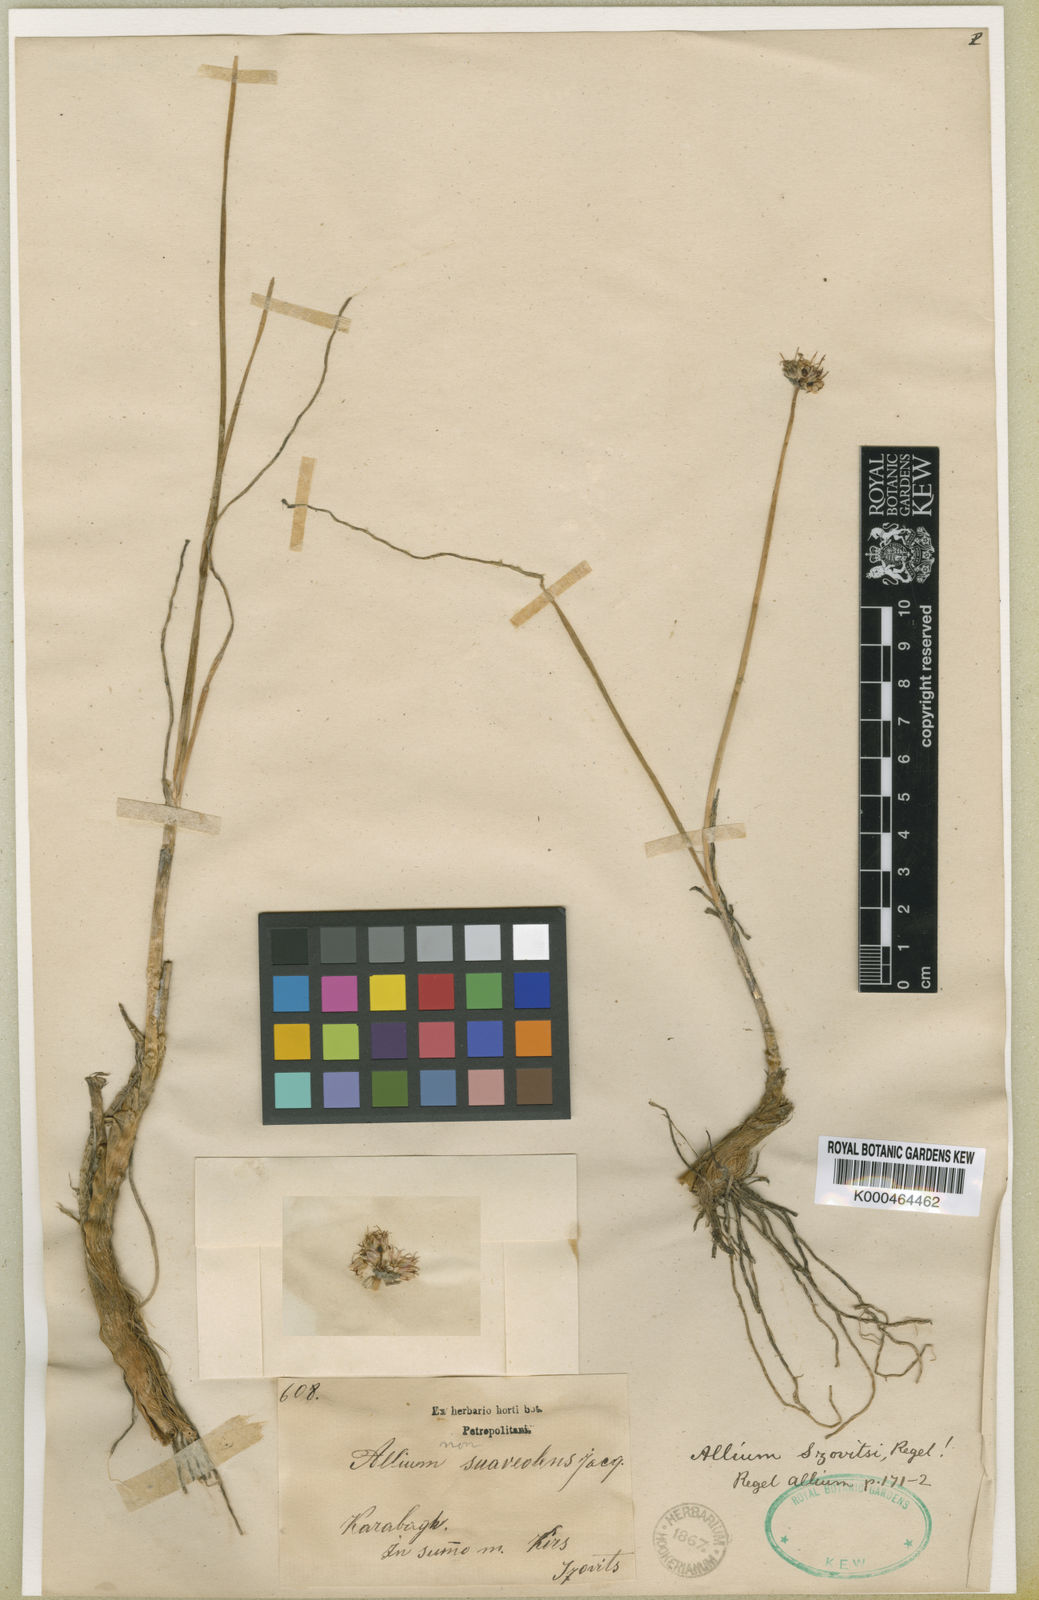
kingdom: Plantae
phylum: Tracheophyta
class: Liliopsida
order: Asparagales
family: Amaryllidaceae
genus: Allium
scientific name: Allium szovitsii
